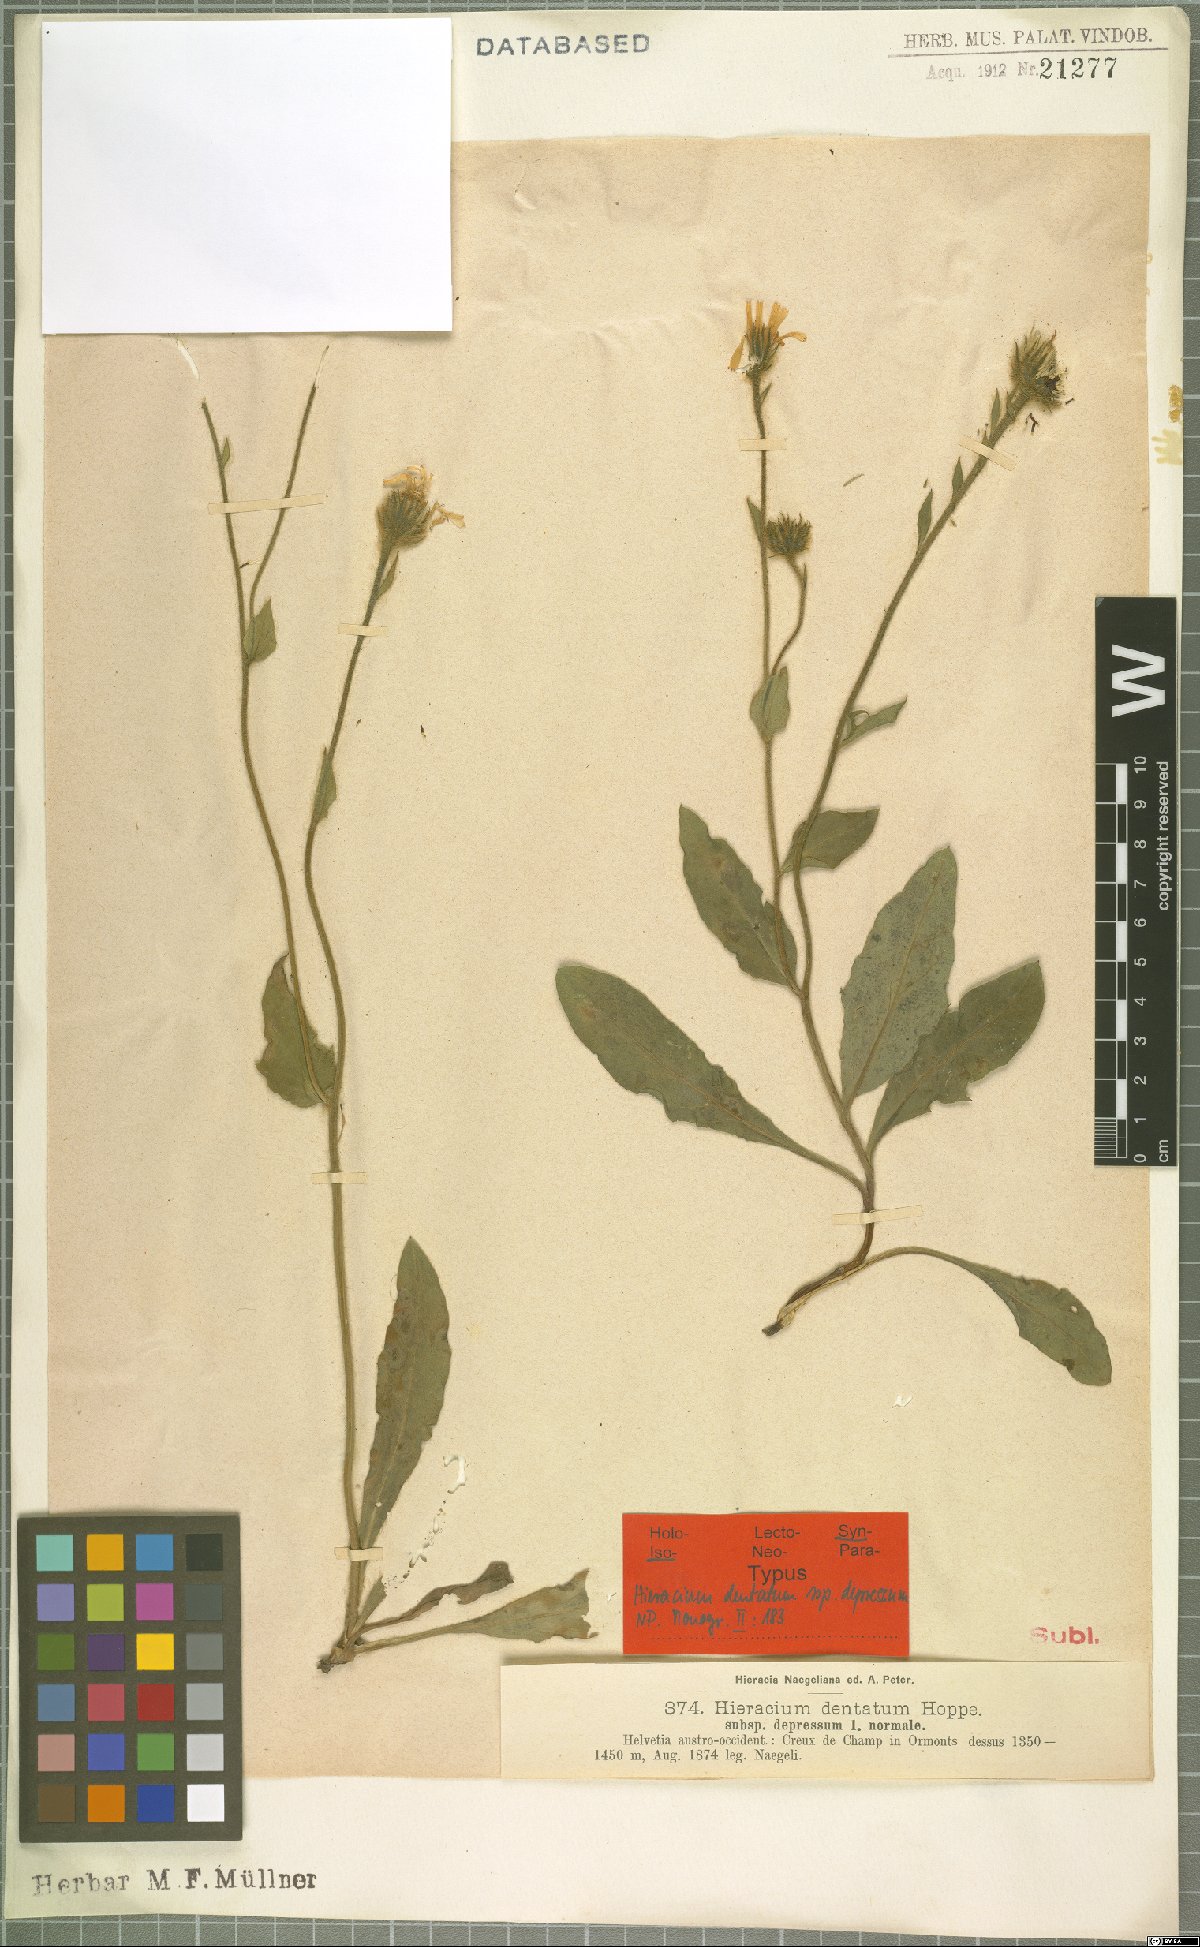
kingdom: Plantae
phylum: Tracheophyta
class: Magnoliopsida
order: Asterales
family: Asteraceae
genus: Hieracium
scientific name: Hieracium dentatum
